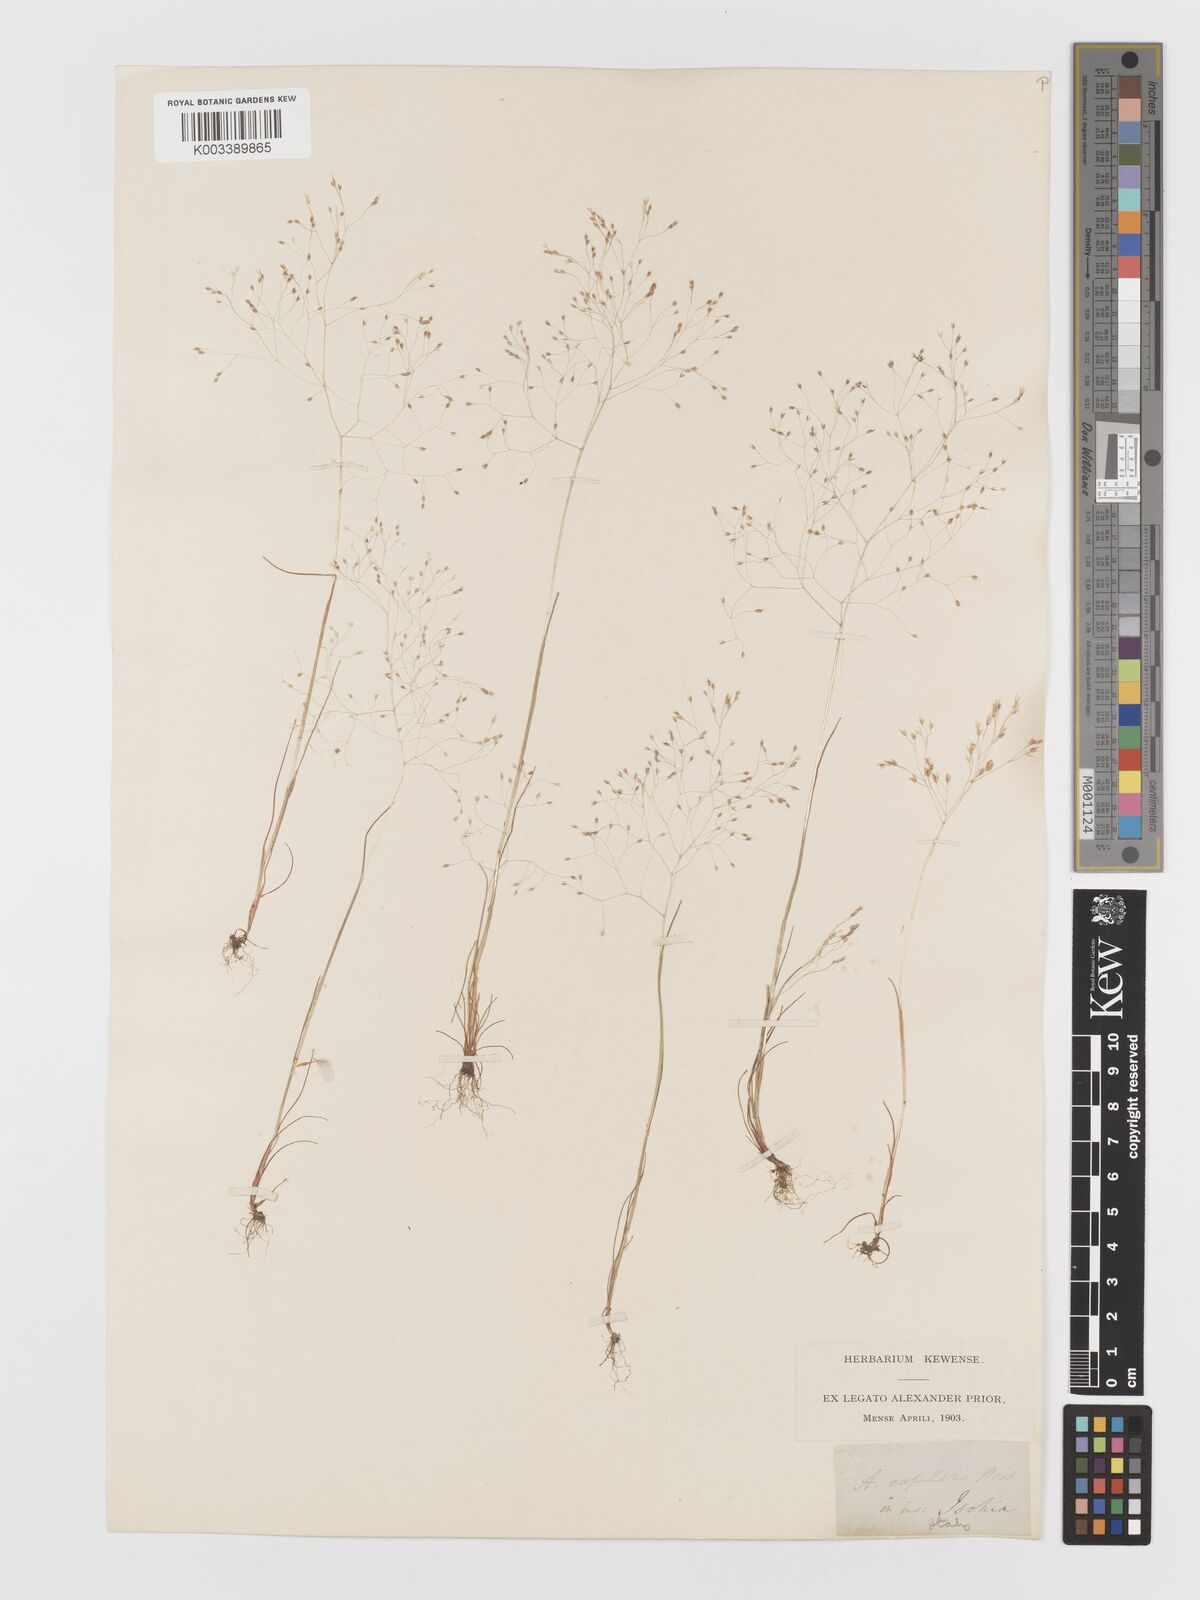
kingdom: Plantae
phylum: Tracheophyta
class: Liliopsida
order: Poales
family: Poaceae
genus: Aira
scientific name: Aira elegans
